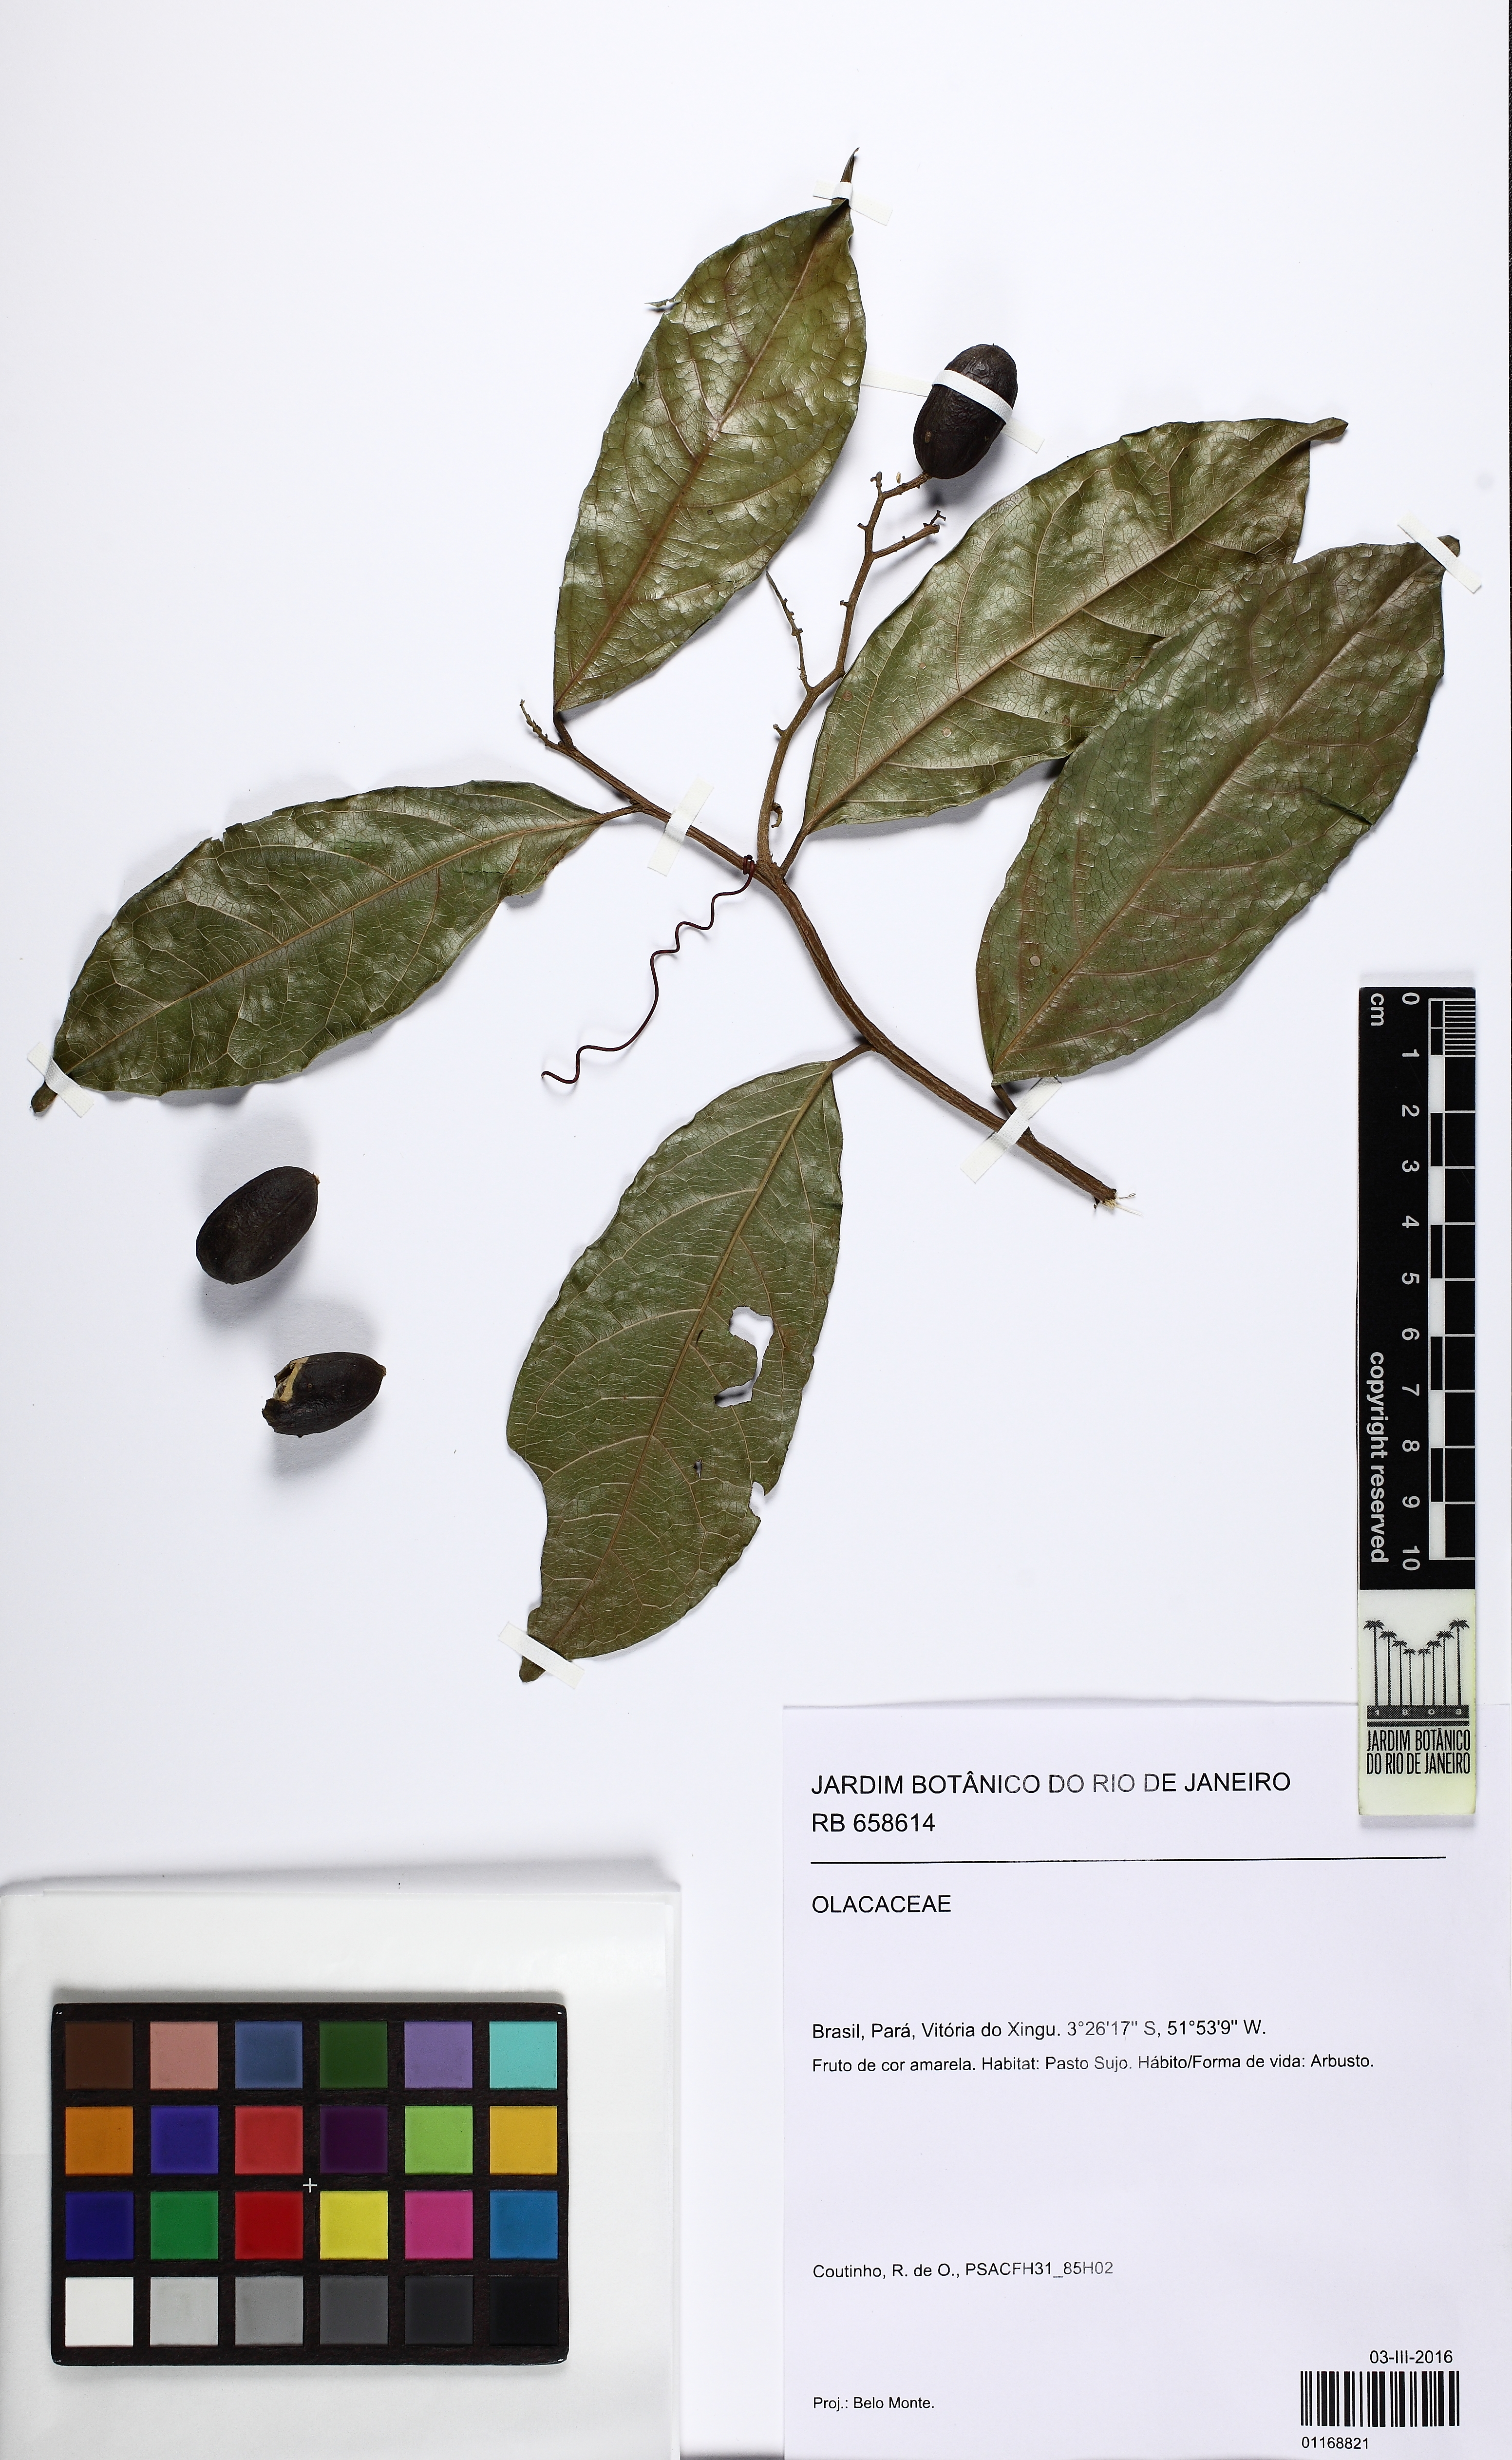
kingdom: Plantae
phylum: Tracheophyta
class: Magnoliopsida
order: Santalales
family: Olacaceae
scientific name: Olacaceae
